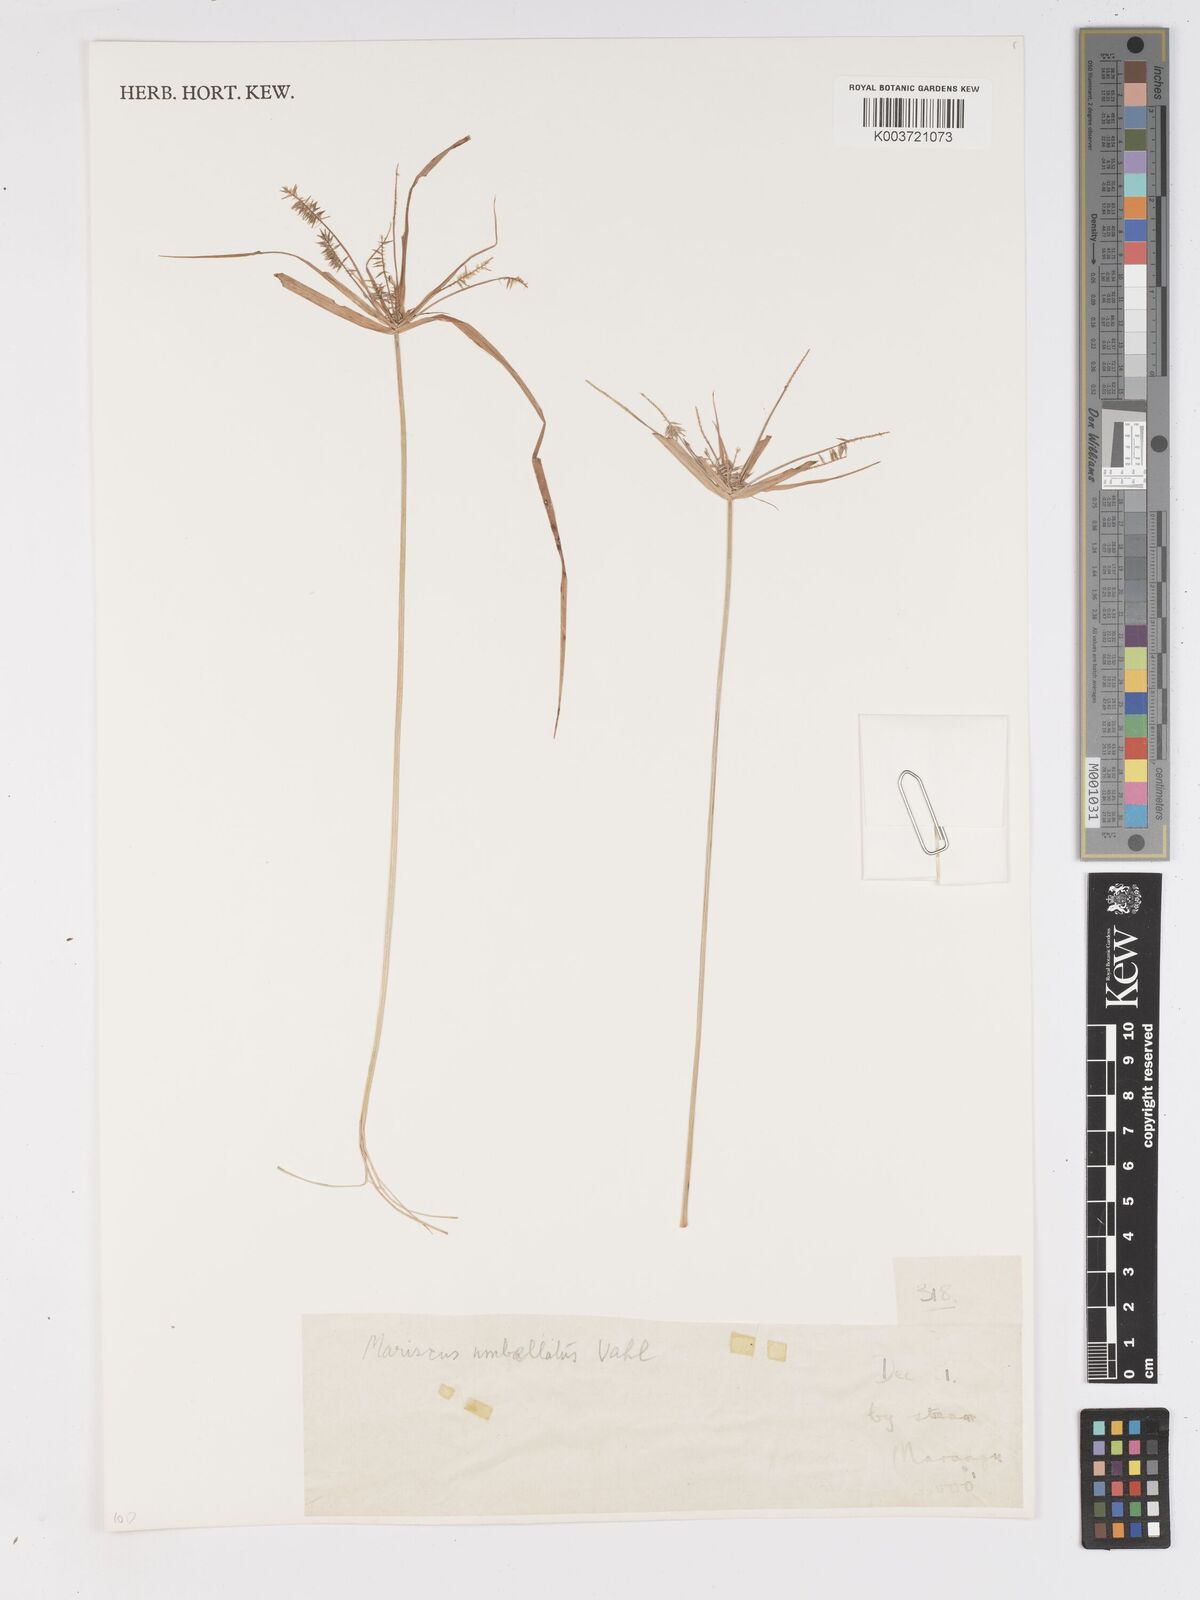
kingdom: Plantae
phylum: Tracheophyta
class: Liliopsida
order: Poales
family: Cyperaceae
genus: Cyperus
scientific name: Cyperus
